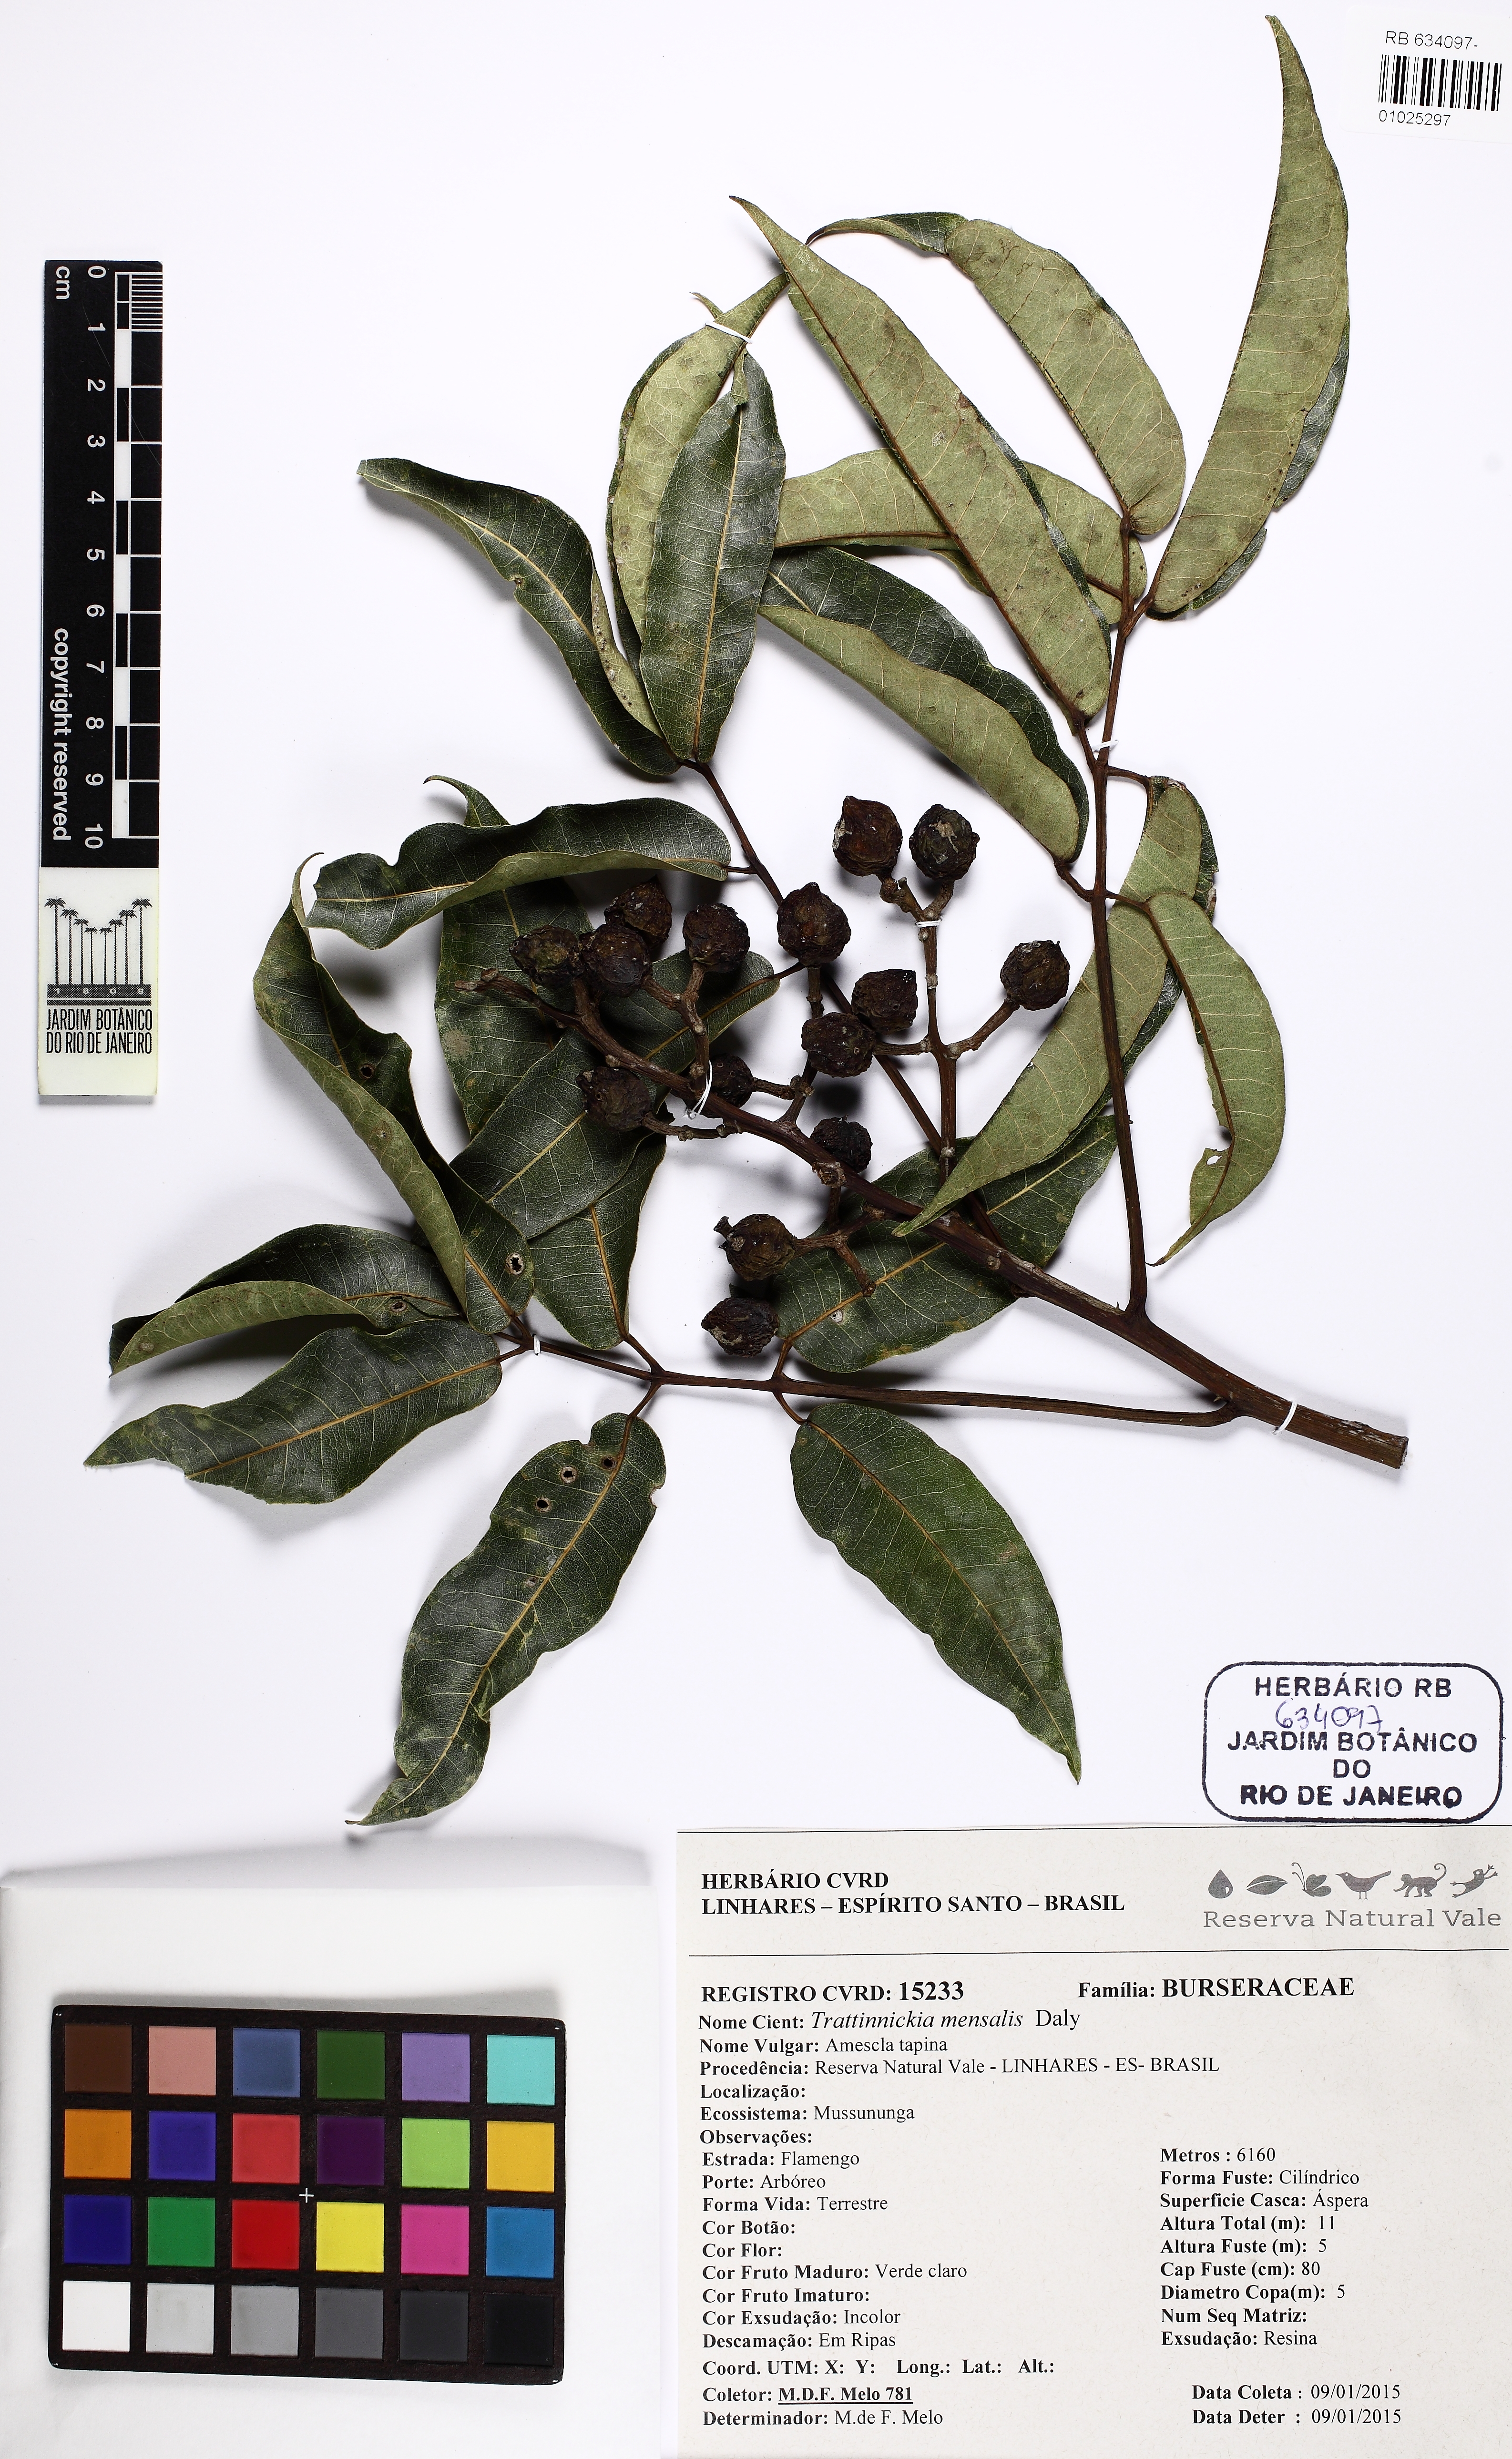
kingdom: Plantae
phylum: Tracheophyta
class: Magnoliopsida
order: Sapindales
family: Burseraceae
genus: Trattinnickia
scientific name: Trattinnickia mensalis
